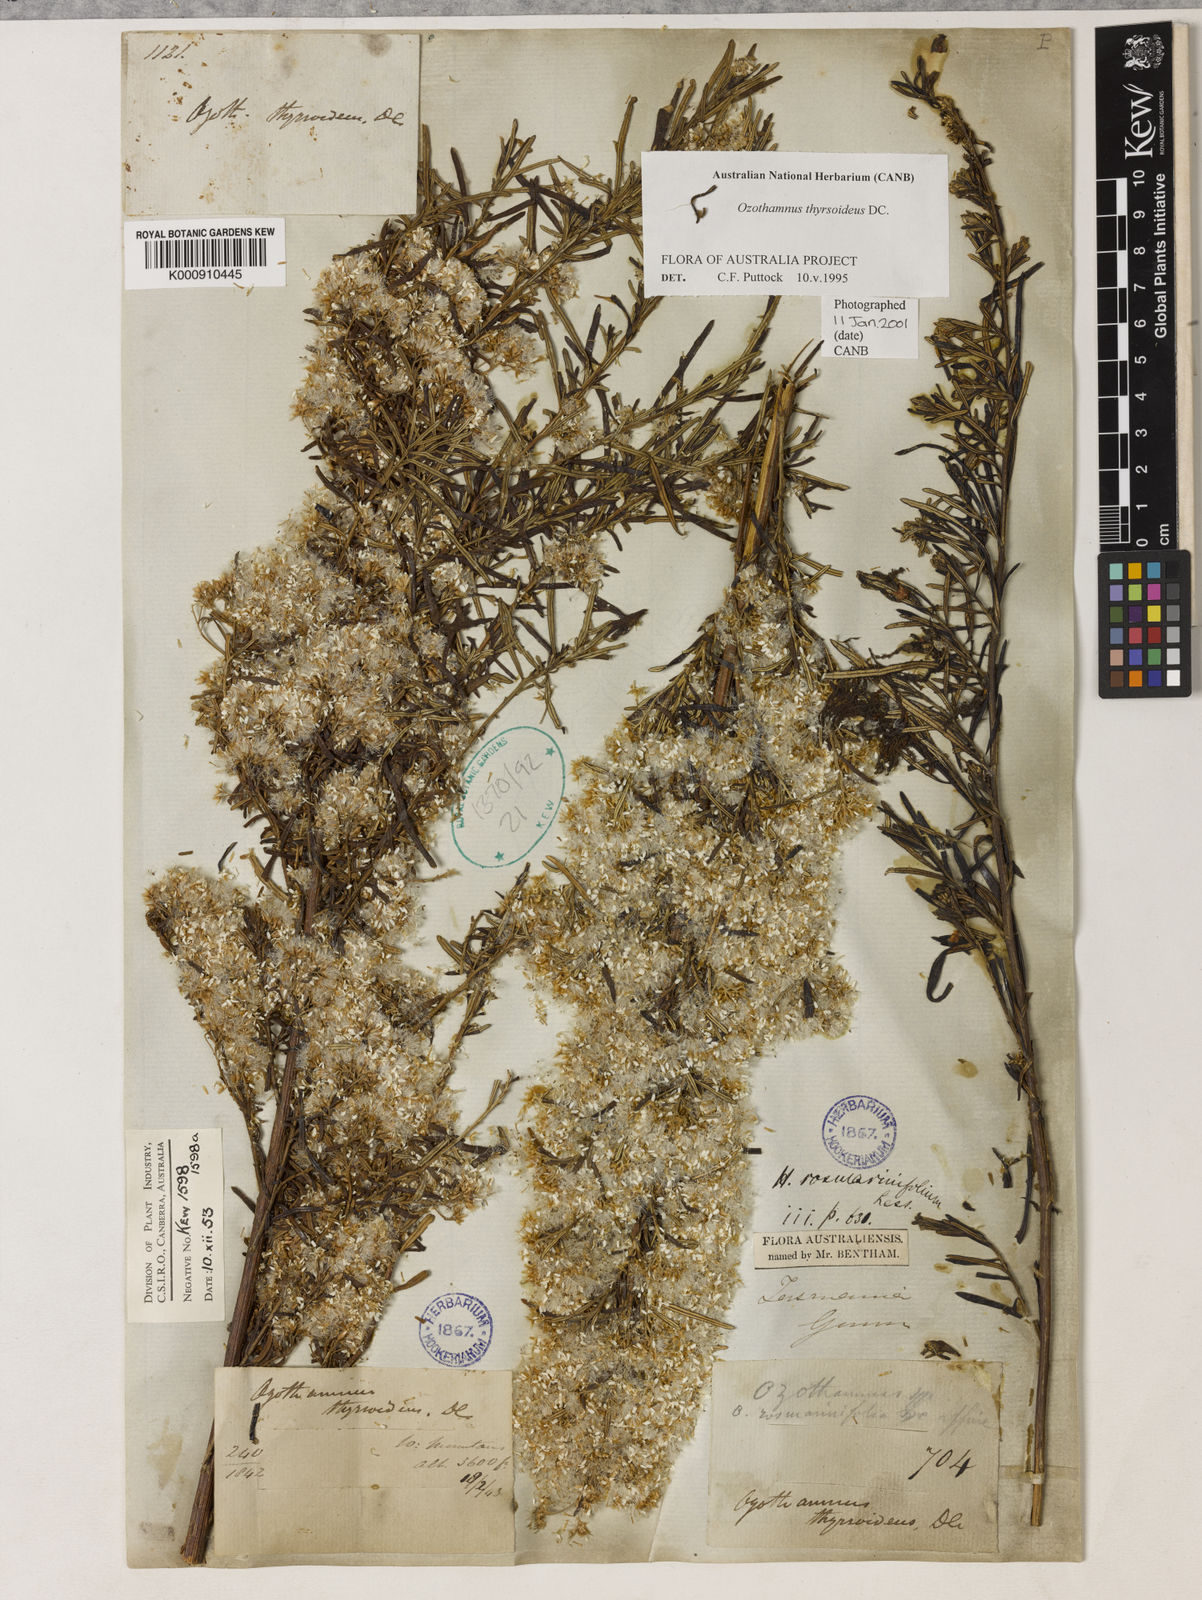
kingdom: Plantae
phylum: Tracheophyta
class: Magnoliopsida
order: Asterales
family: Asteraceae
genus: Ozothamnus
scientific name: Ozothamnus thyrsoideus
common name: Snow-in-summer
